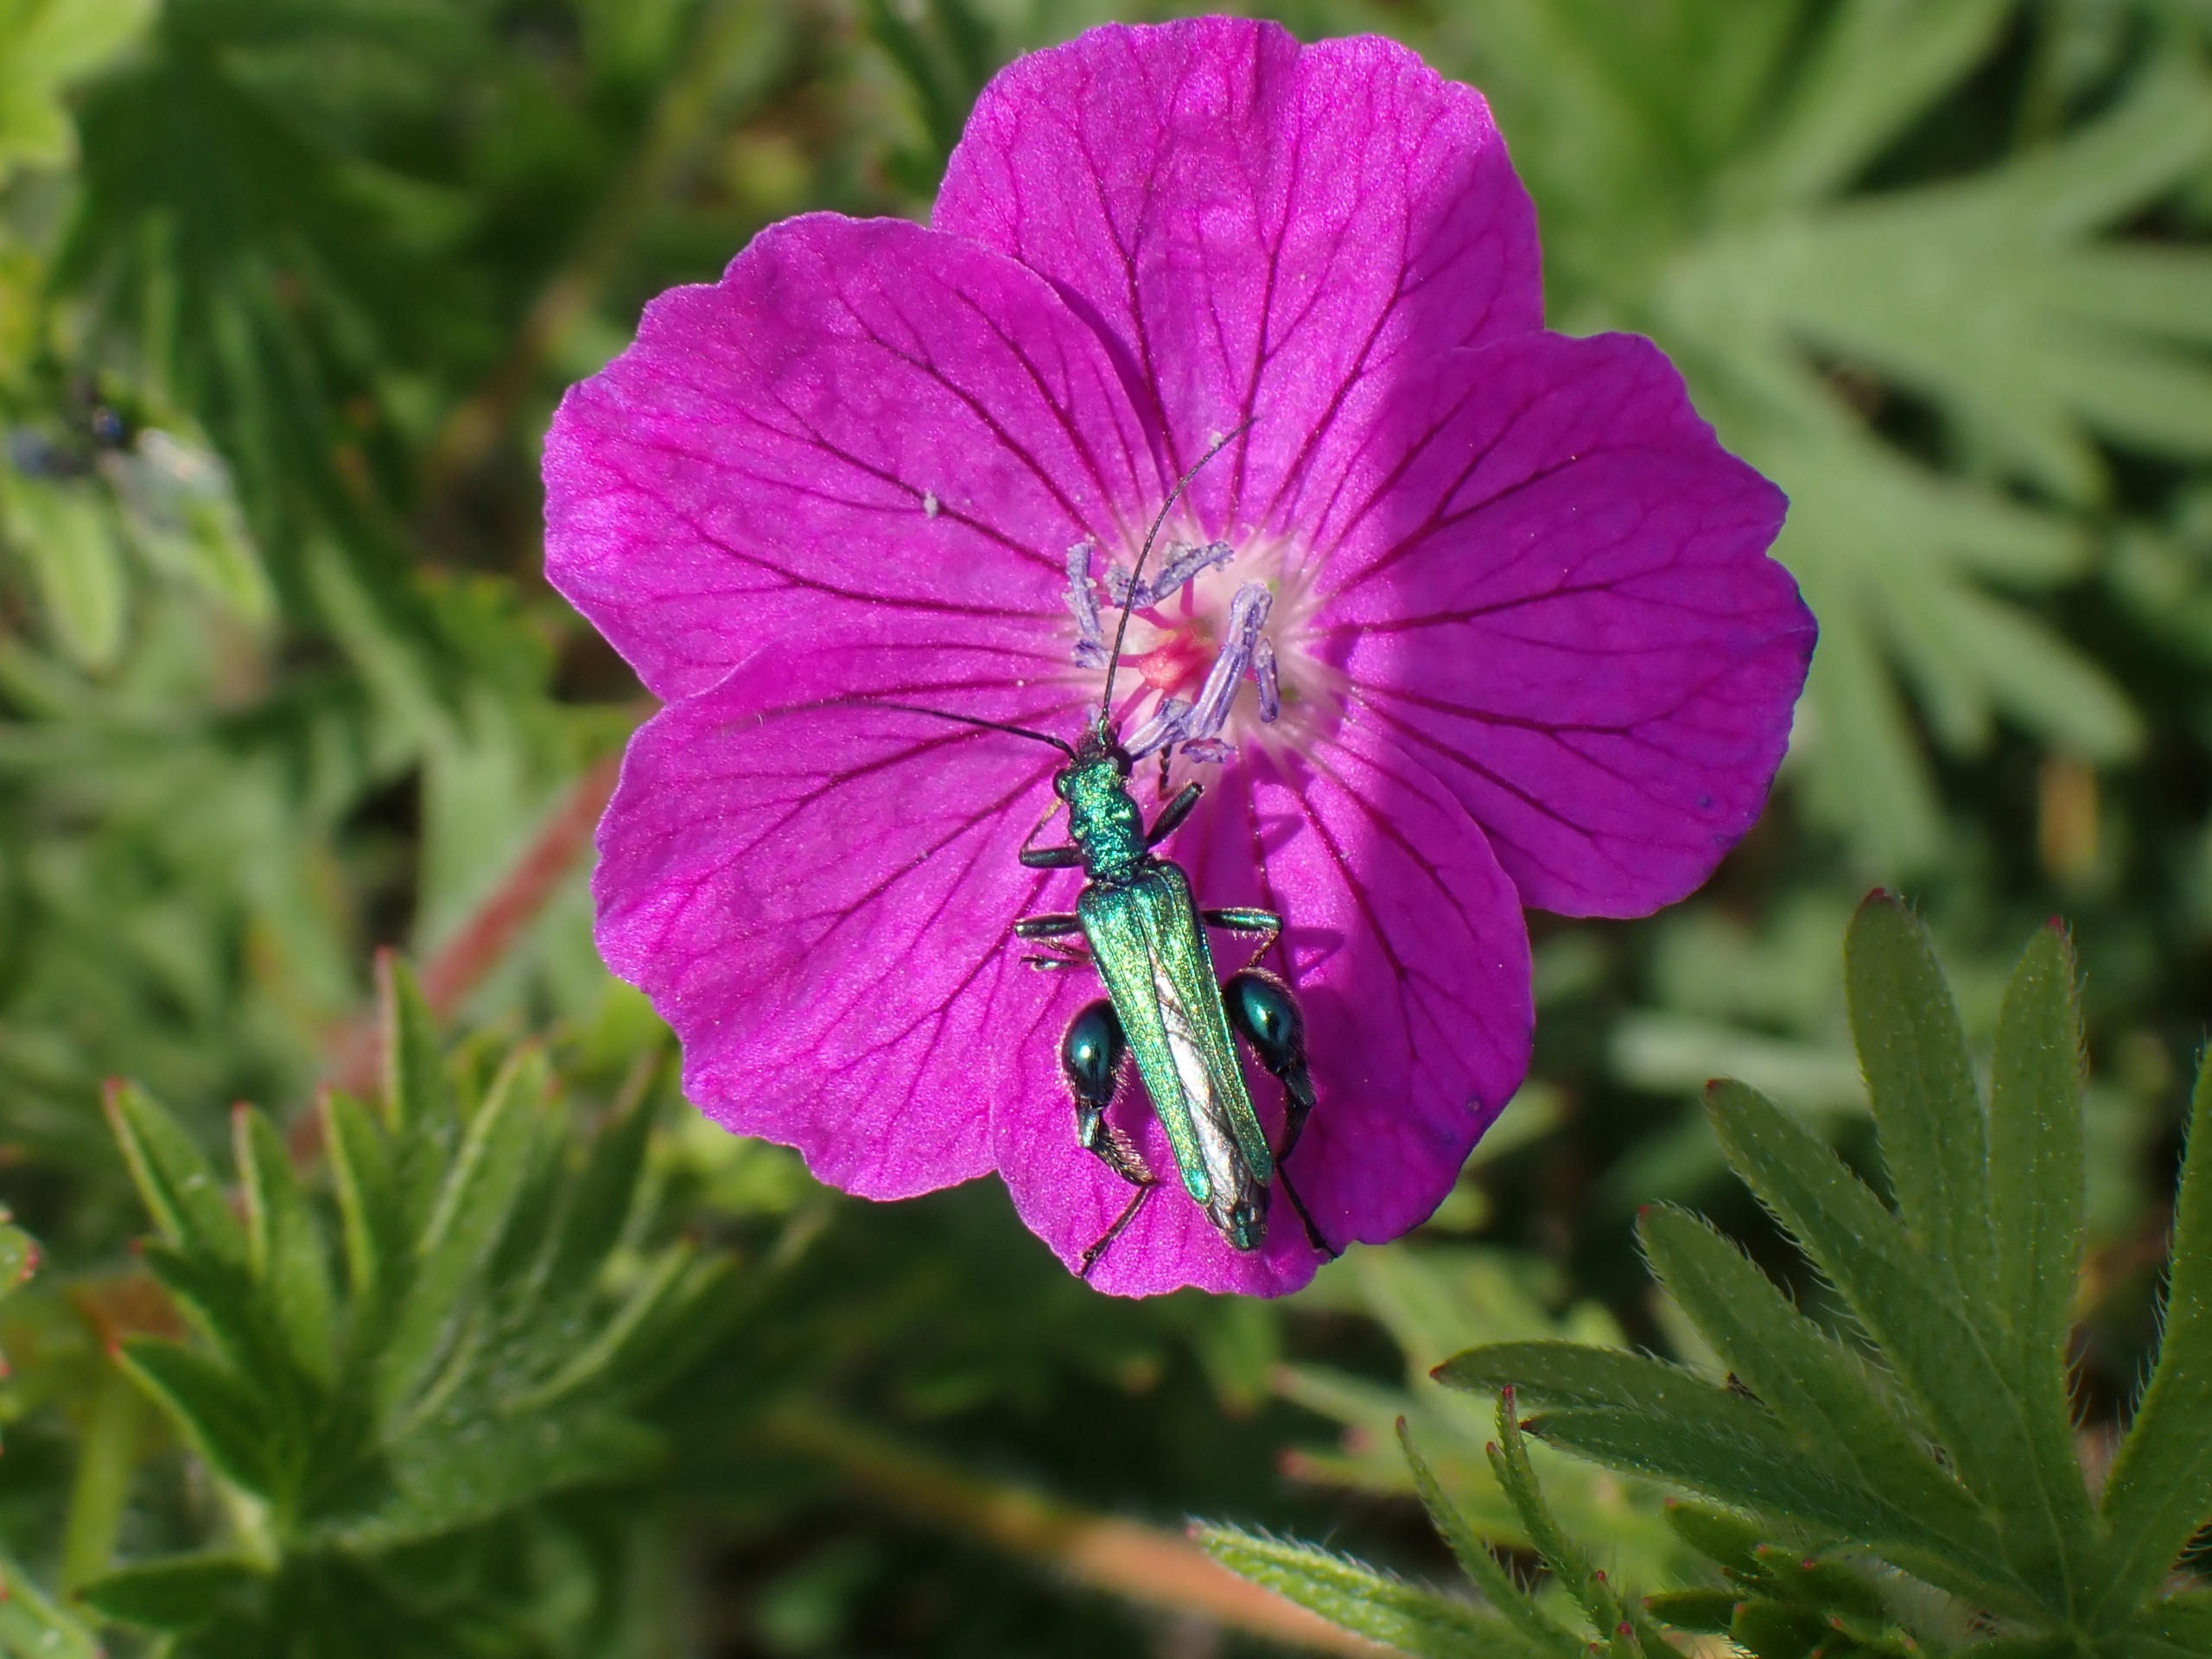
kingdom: Animalia
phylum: Arthropoda
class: Insecta
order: Coleoptera
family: Oedemeridae
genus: Oedemera
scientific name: Oedemera nobilis
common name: Tyklårssolbille
